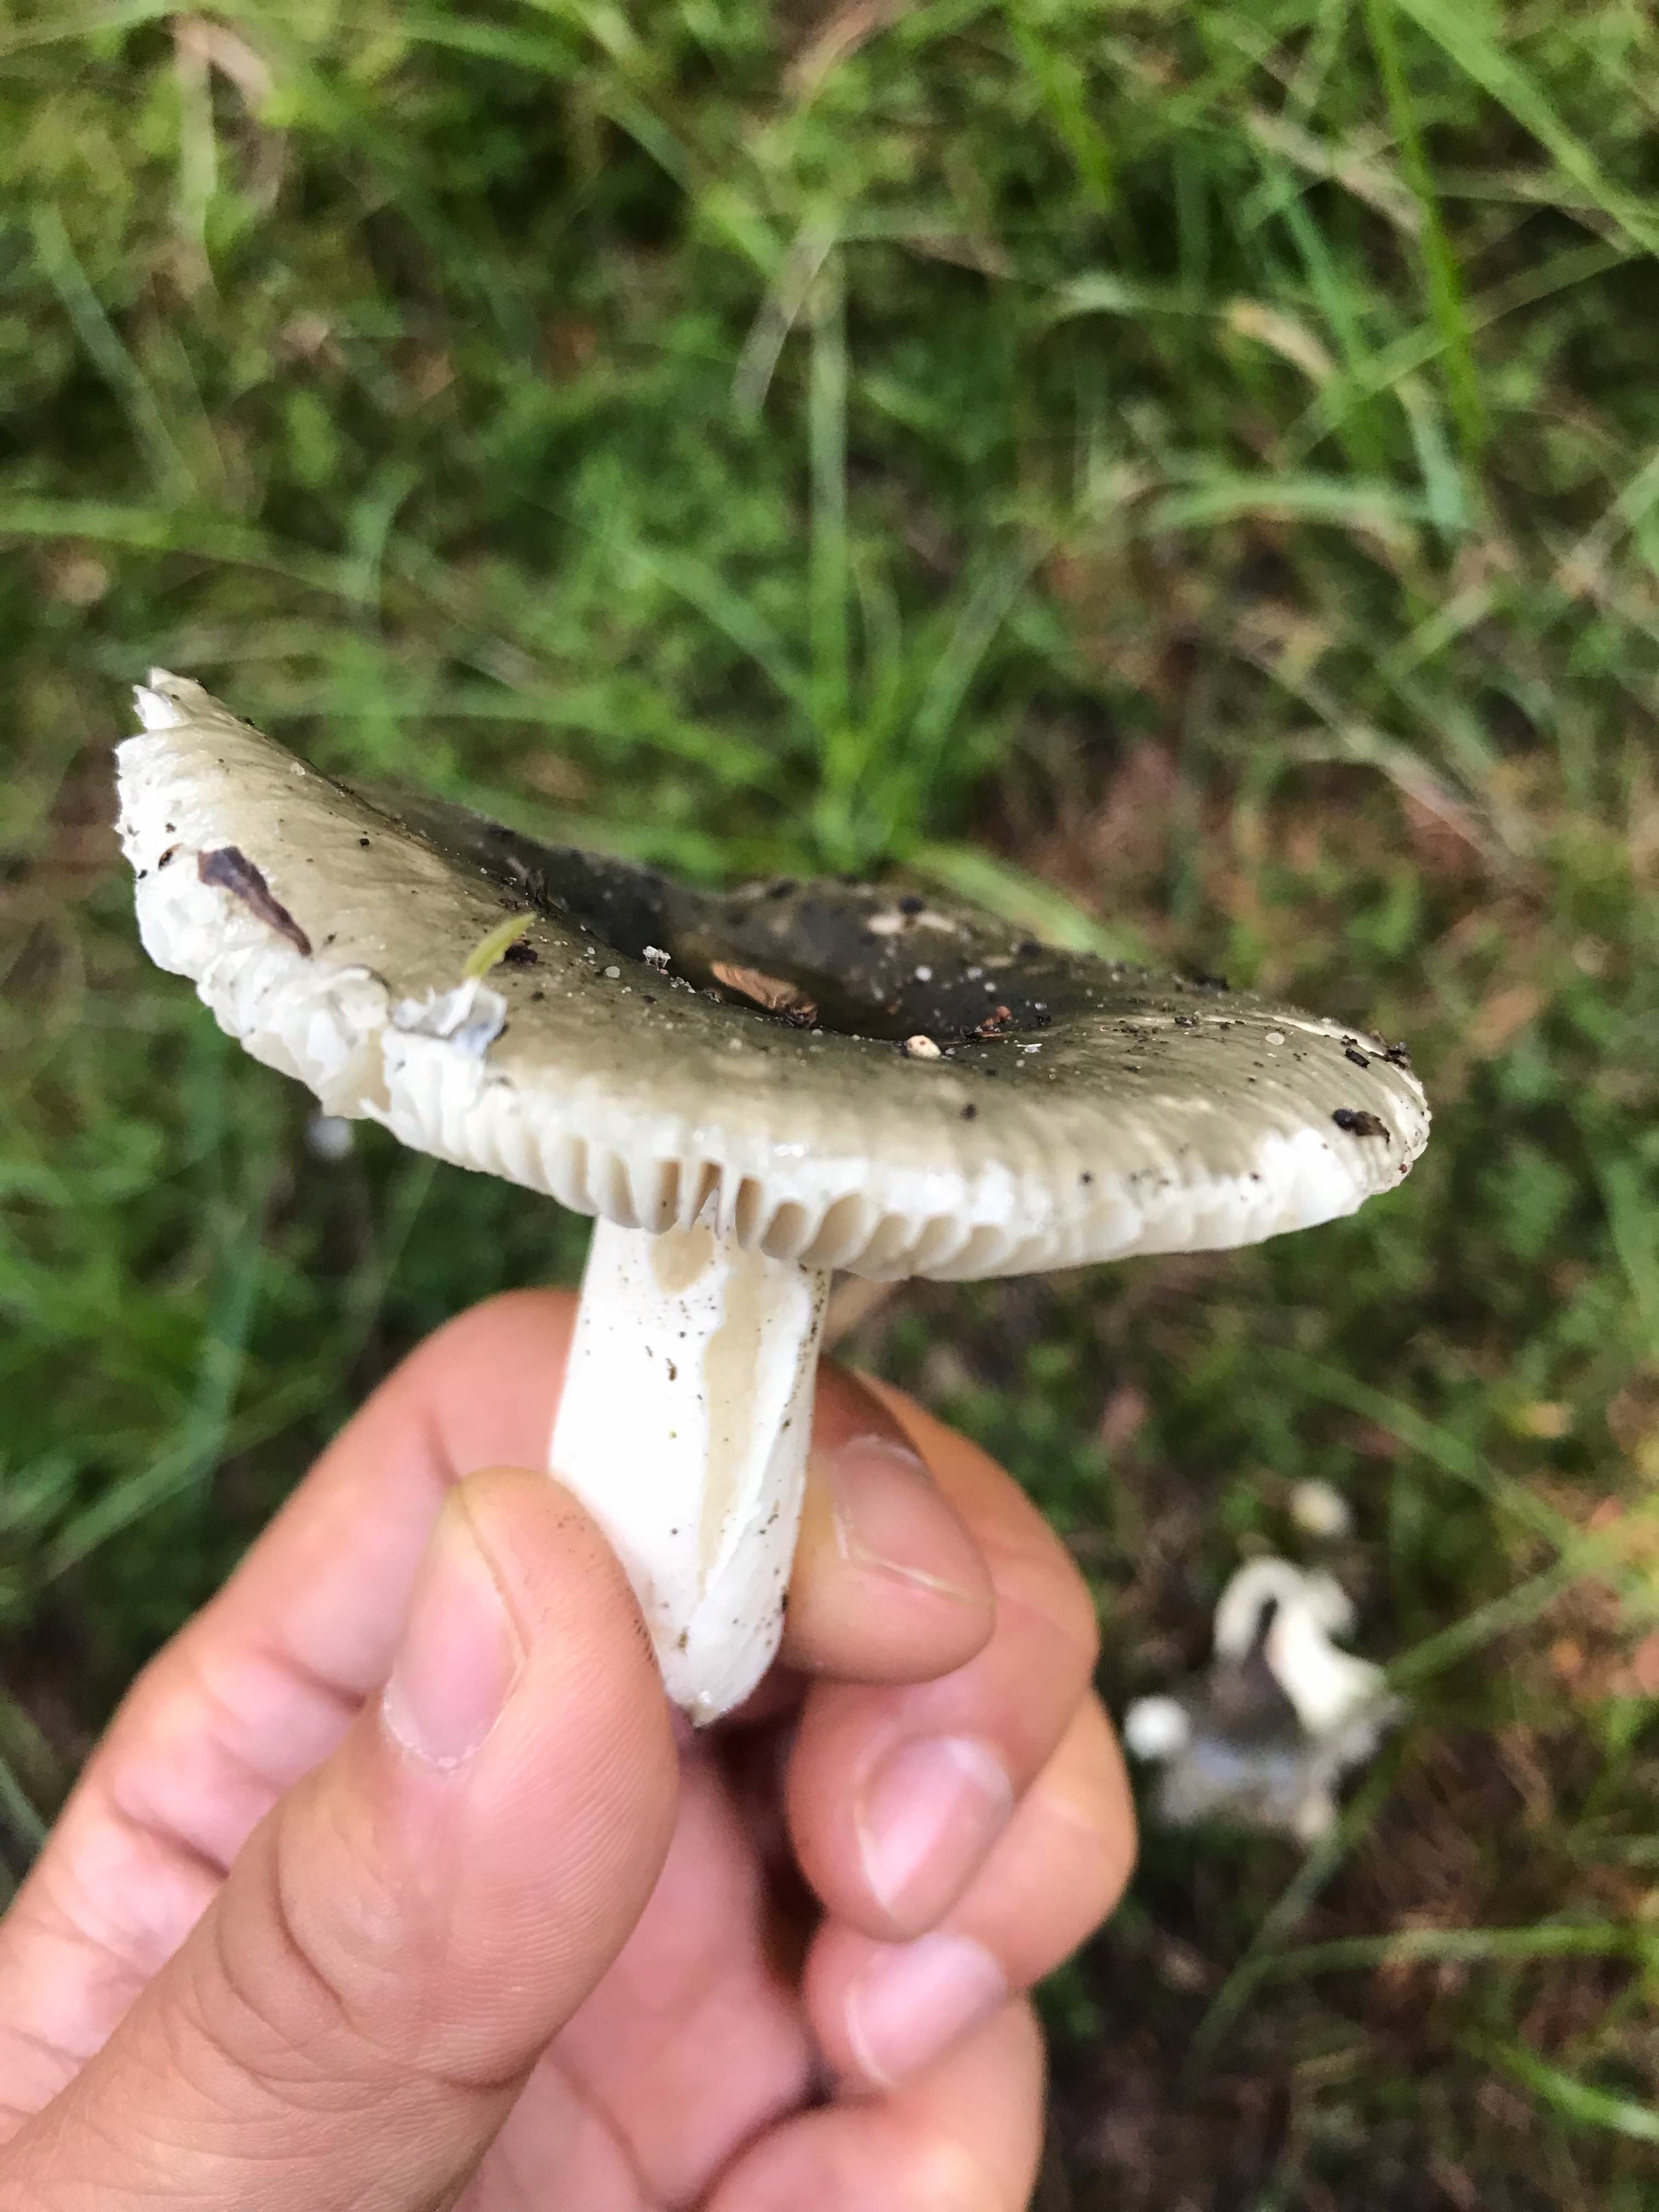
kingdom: Fungi
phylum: Basidiomycota
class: Agaricomycetes
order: Russulales
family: Russulaceae
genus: Russula
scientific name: Russula
